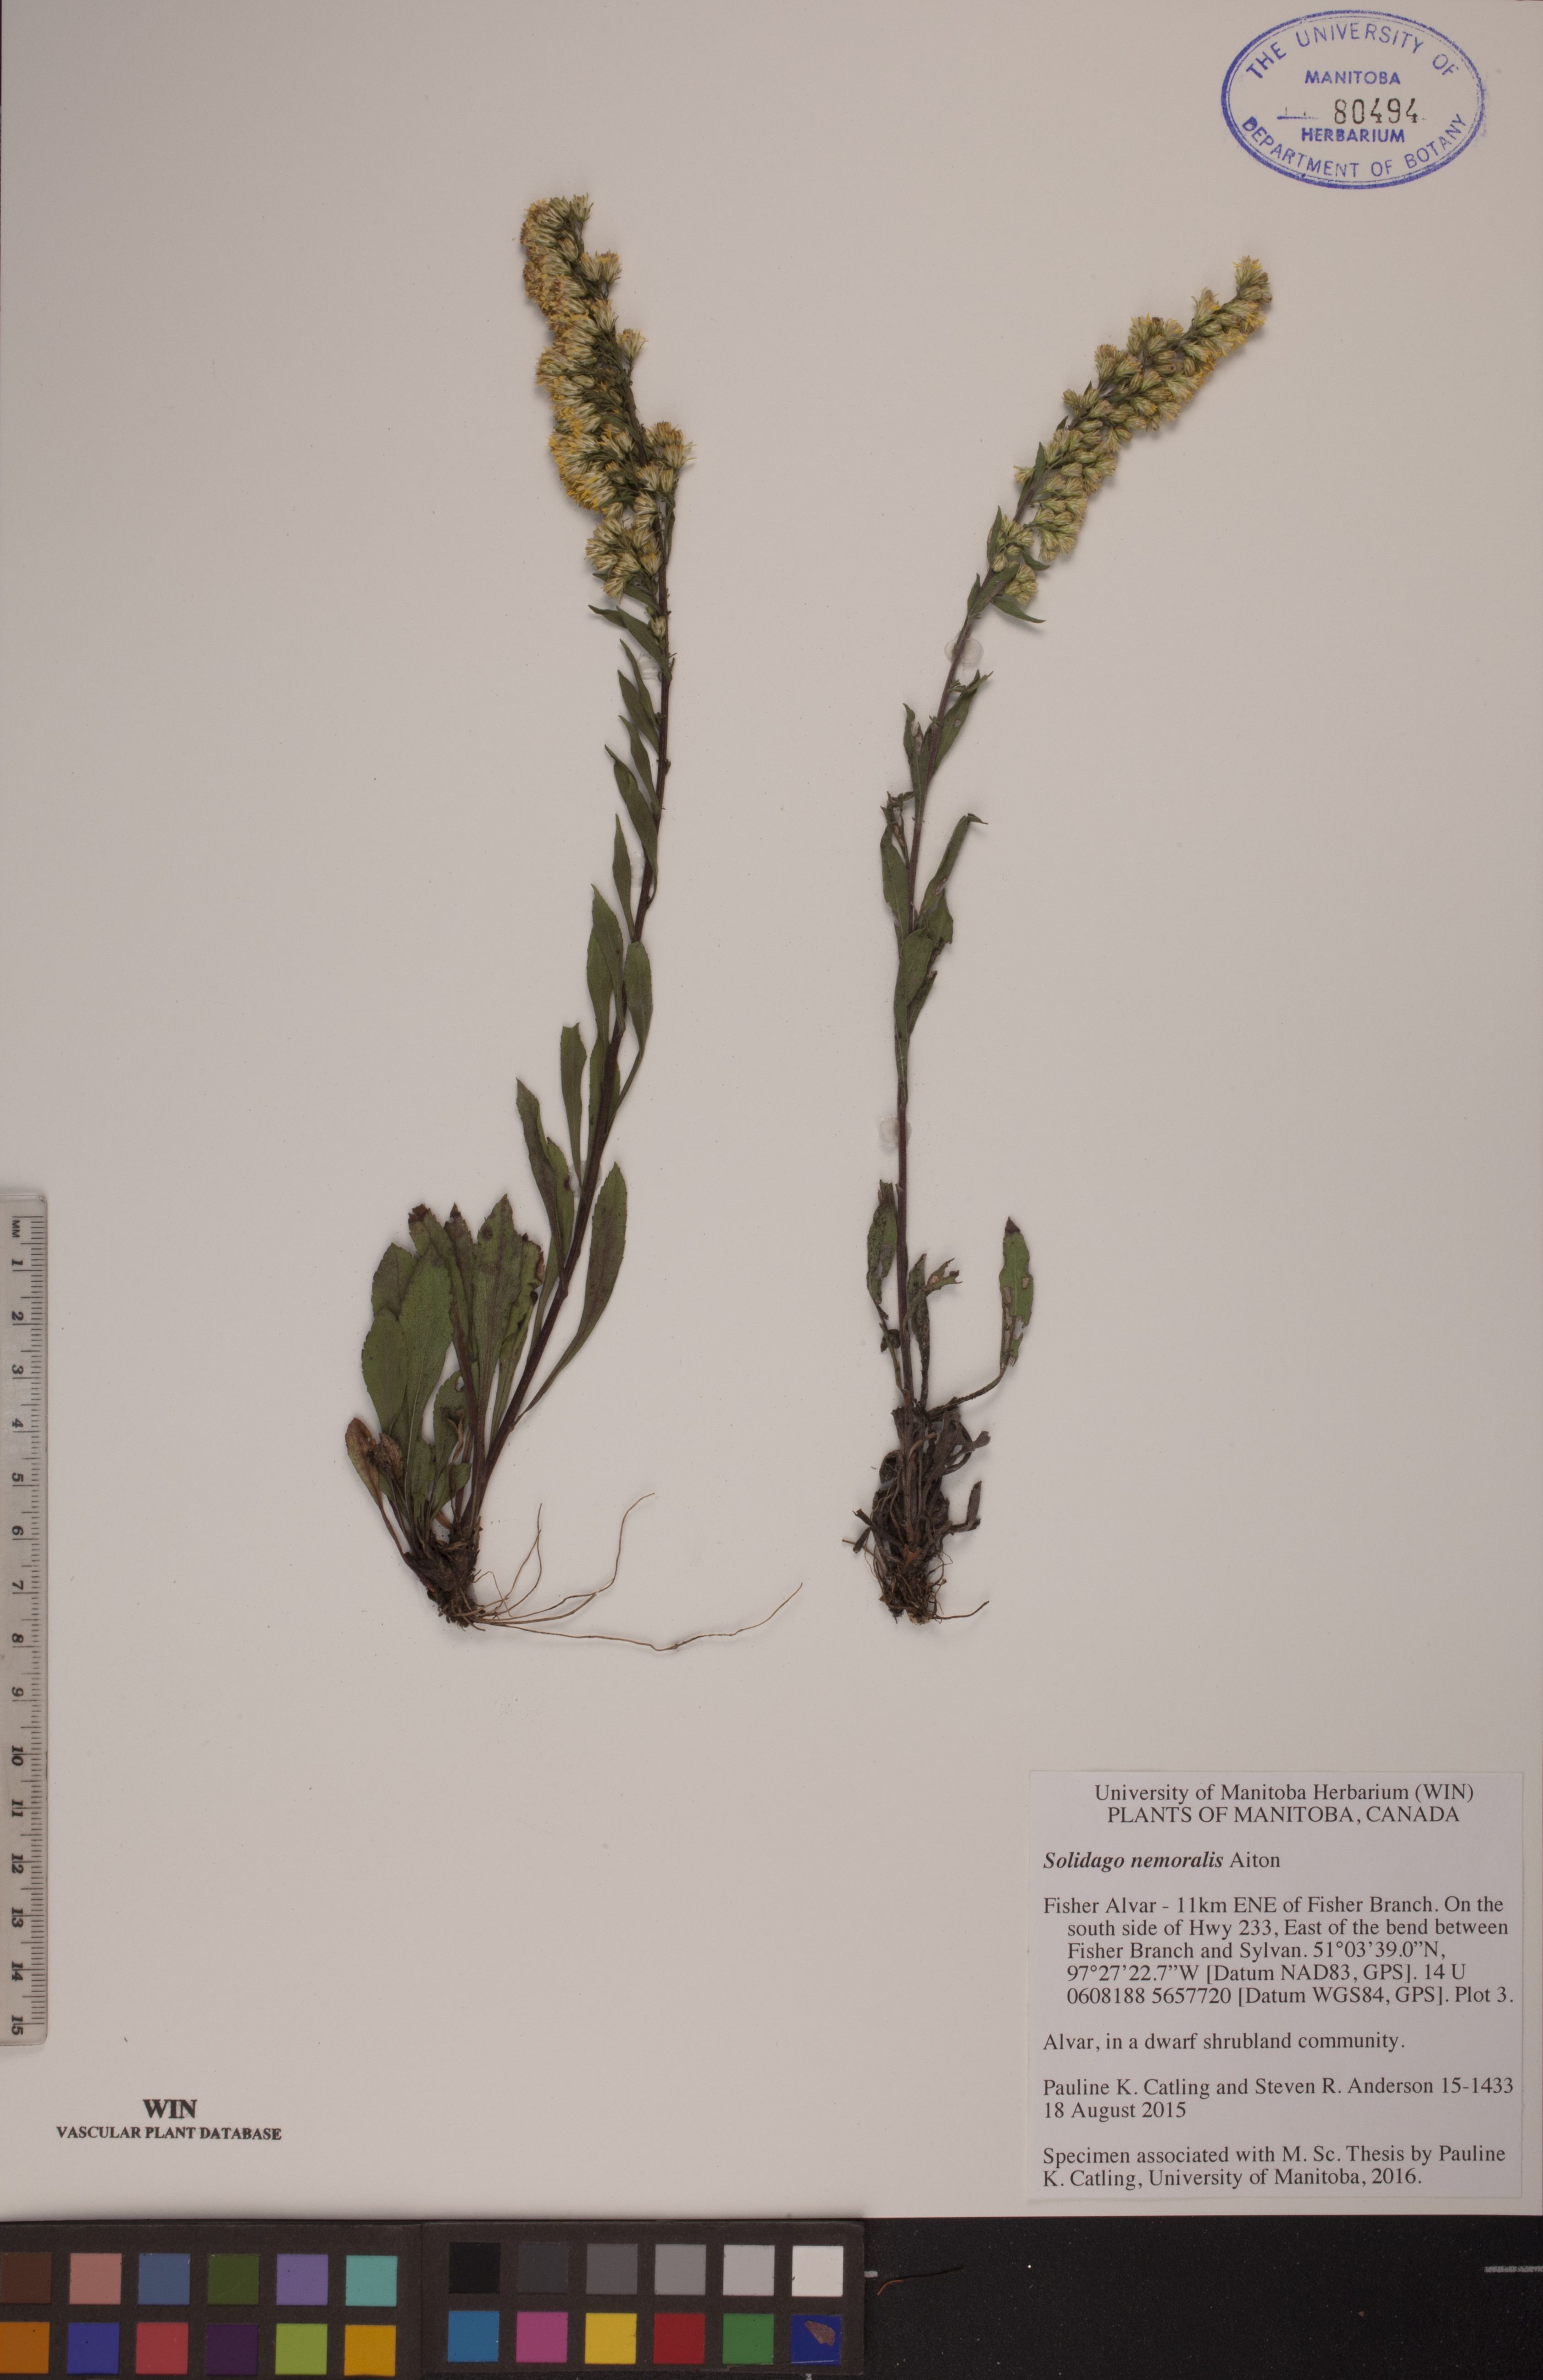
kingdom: Plantae
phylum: Tracheophyta
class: Magnoliopsida
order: Asterales
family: Asteraceae
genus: Solidago
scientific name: Solidago nemoralis
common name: Grey goldenrod
